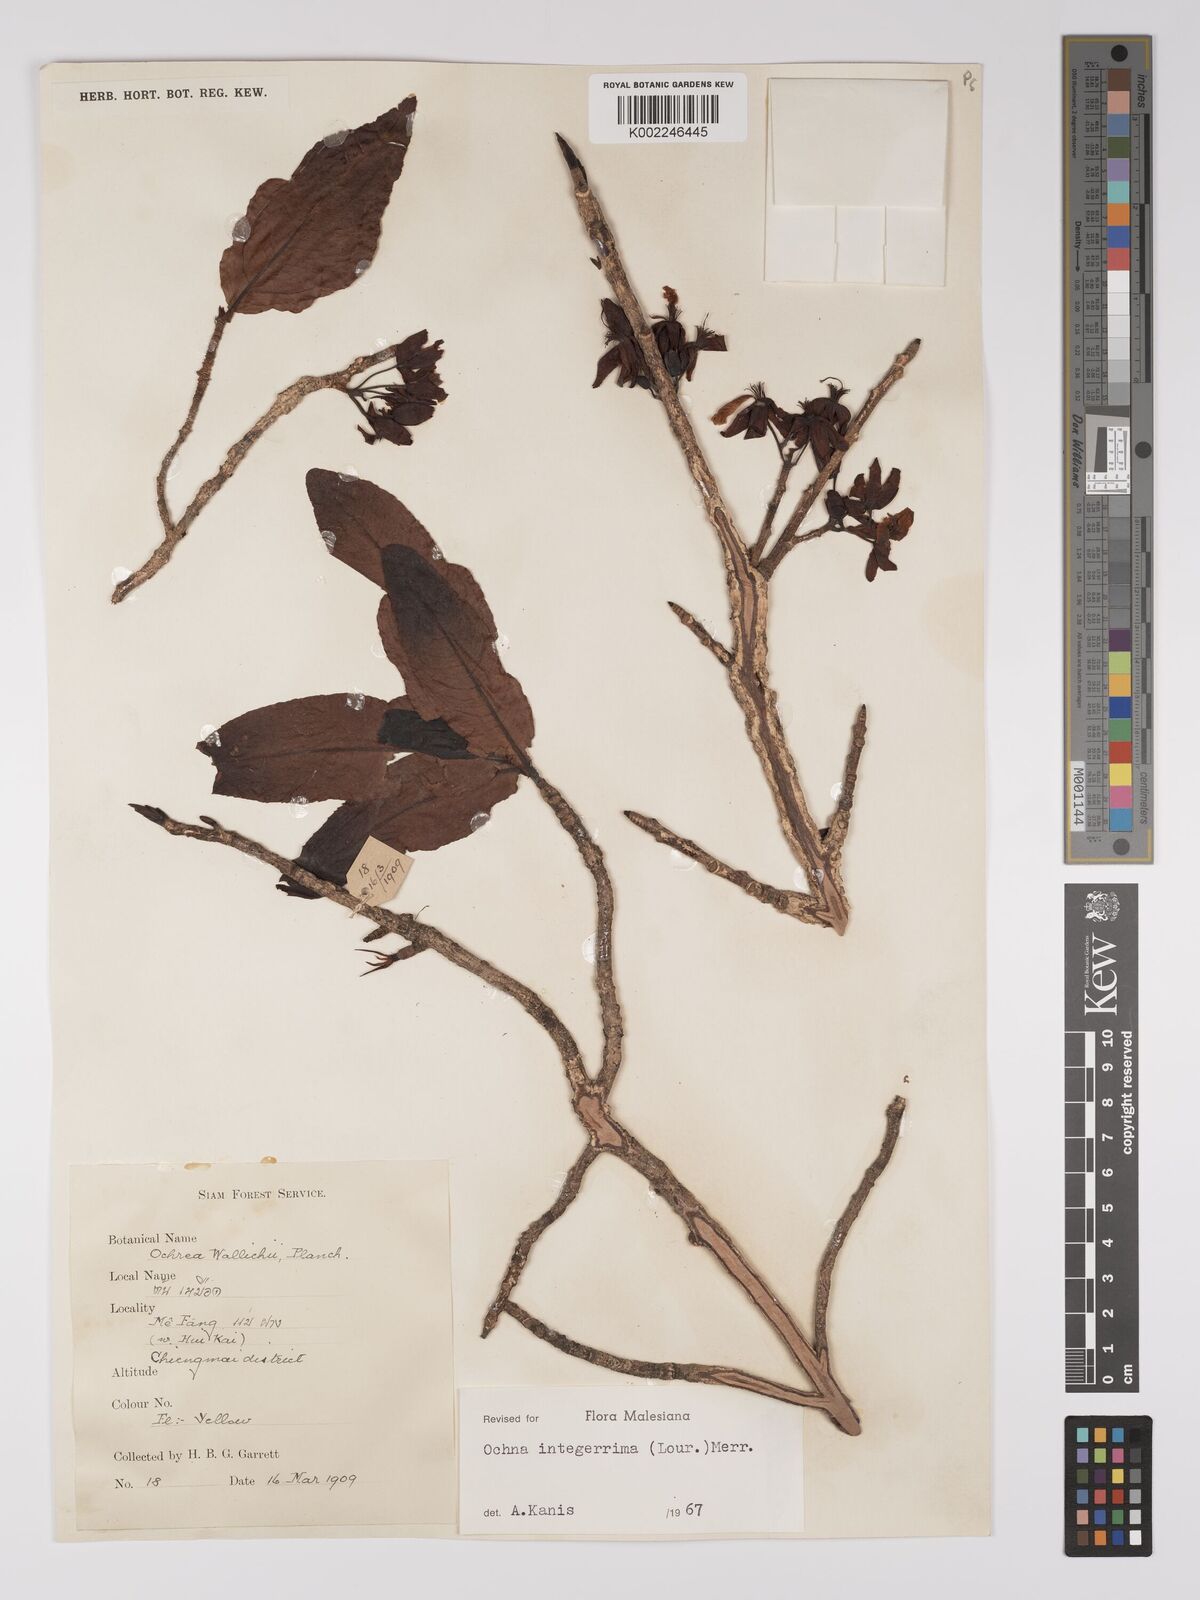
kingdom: Plantae
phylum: Tracheophyta
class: Magnoliopsida
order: Malpighiales
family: Ochnaceae
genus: Ochna
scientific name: Ochna integerrima
